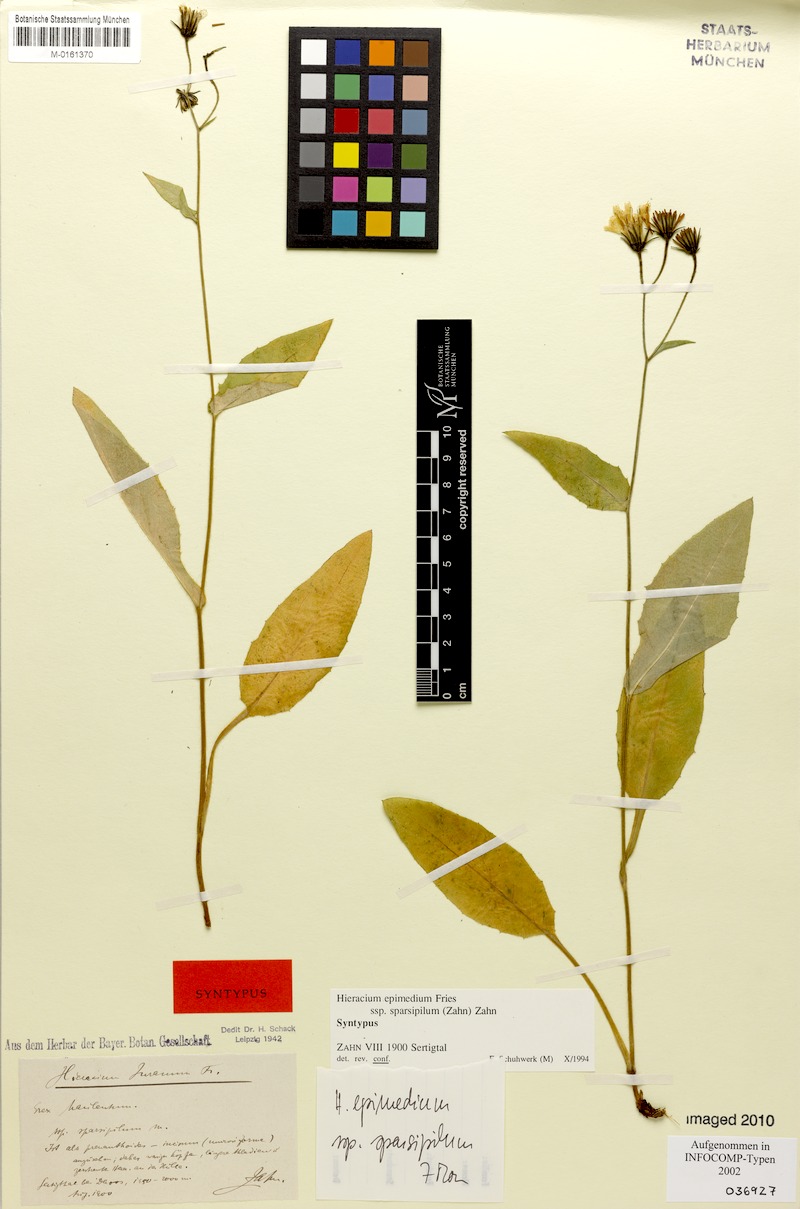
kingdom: Plantae
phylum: Tracheophyta
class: Magnoliopsida
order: Asterales
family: Asteraceae
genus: Hieracium
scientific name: Hieracium froelichianum
